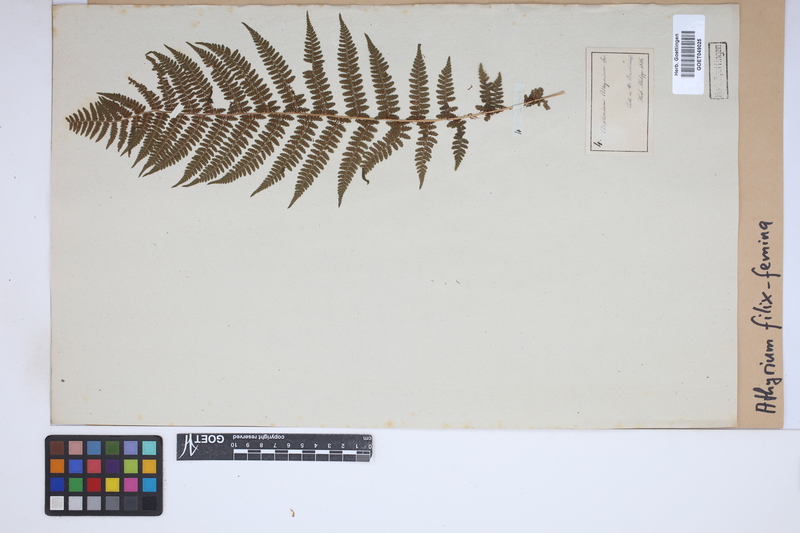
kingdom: Plantae
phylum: Tracheophyta
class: Polypodiopsida
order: Polypodiales
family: Athyriaceae
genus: Athyrium
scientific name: Athyrium filix-femina
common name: Lady fern
